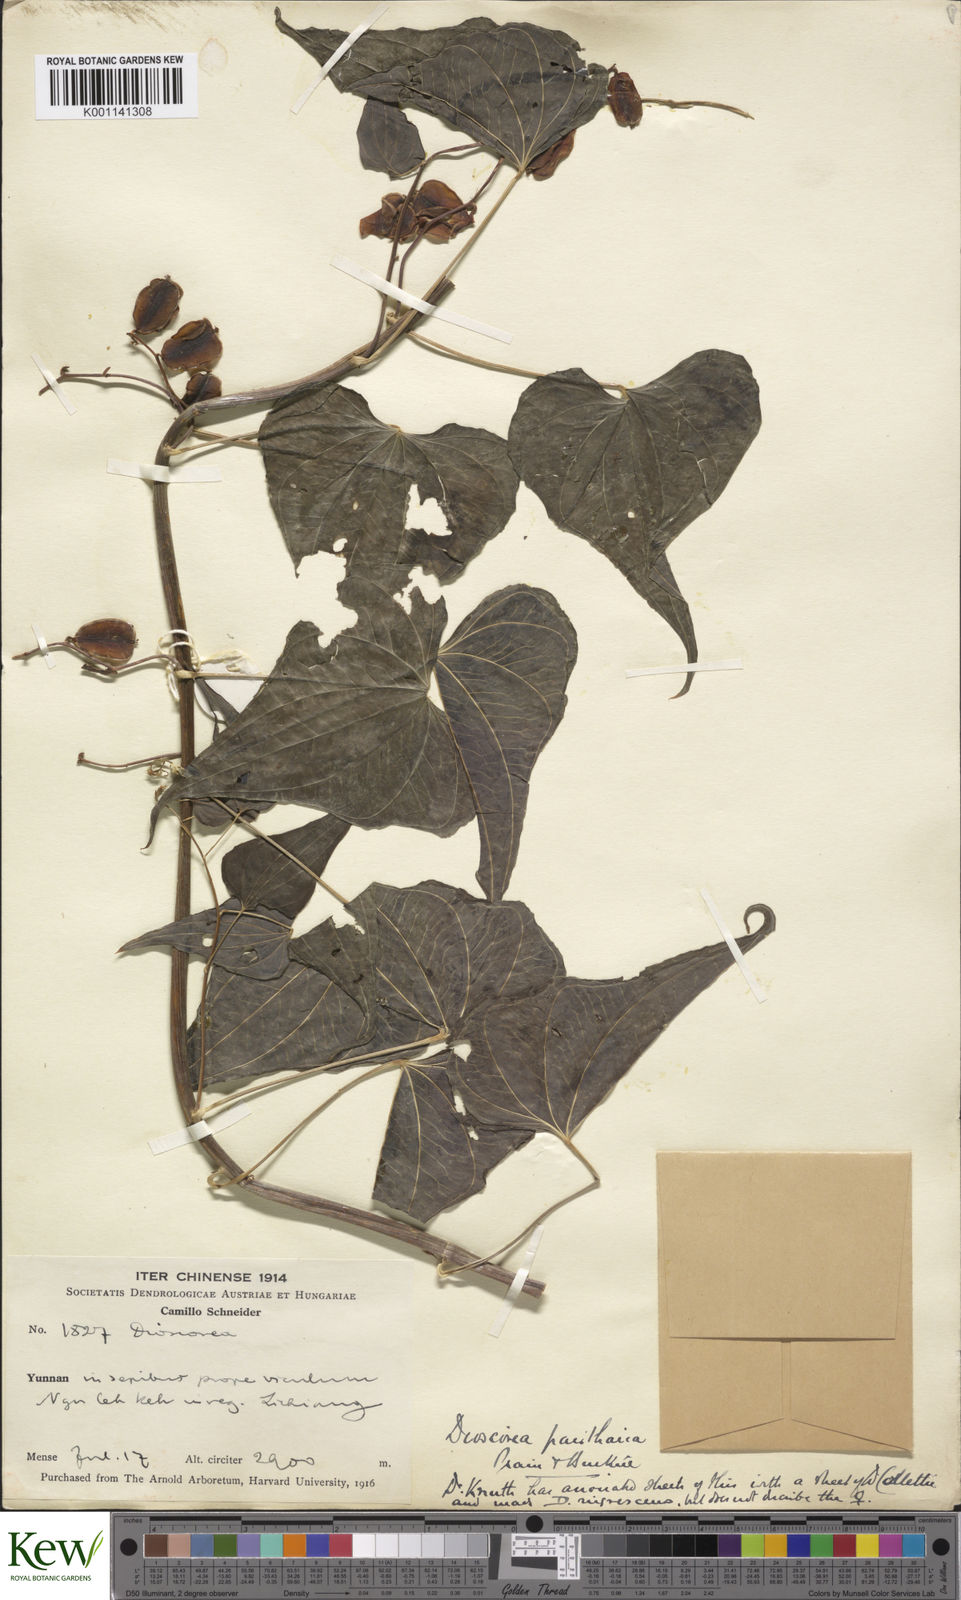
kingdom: Plantae
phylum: Tracheophyta
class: Liliopsida
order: Dioscoreales
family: Dioscoreaceae
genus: Dioscorea
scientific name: Dioscorea panthaica
